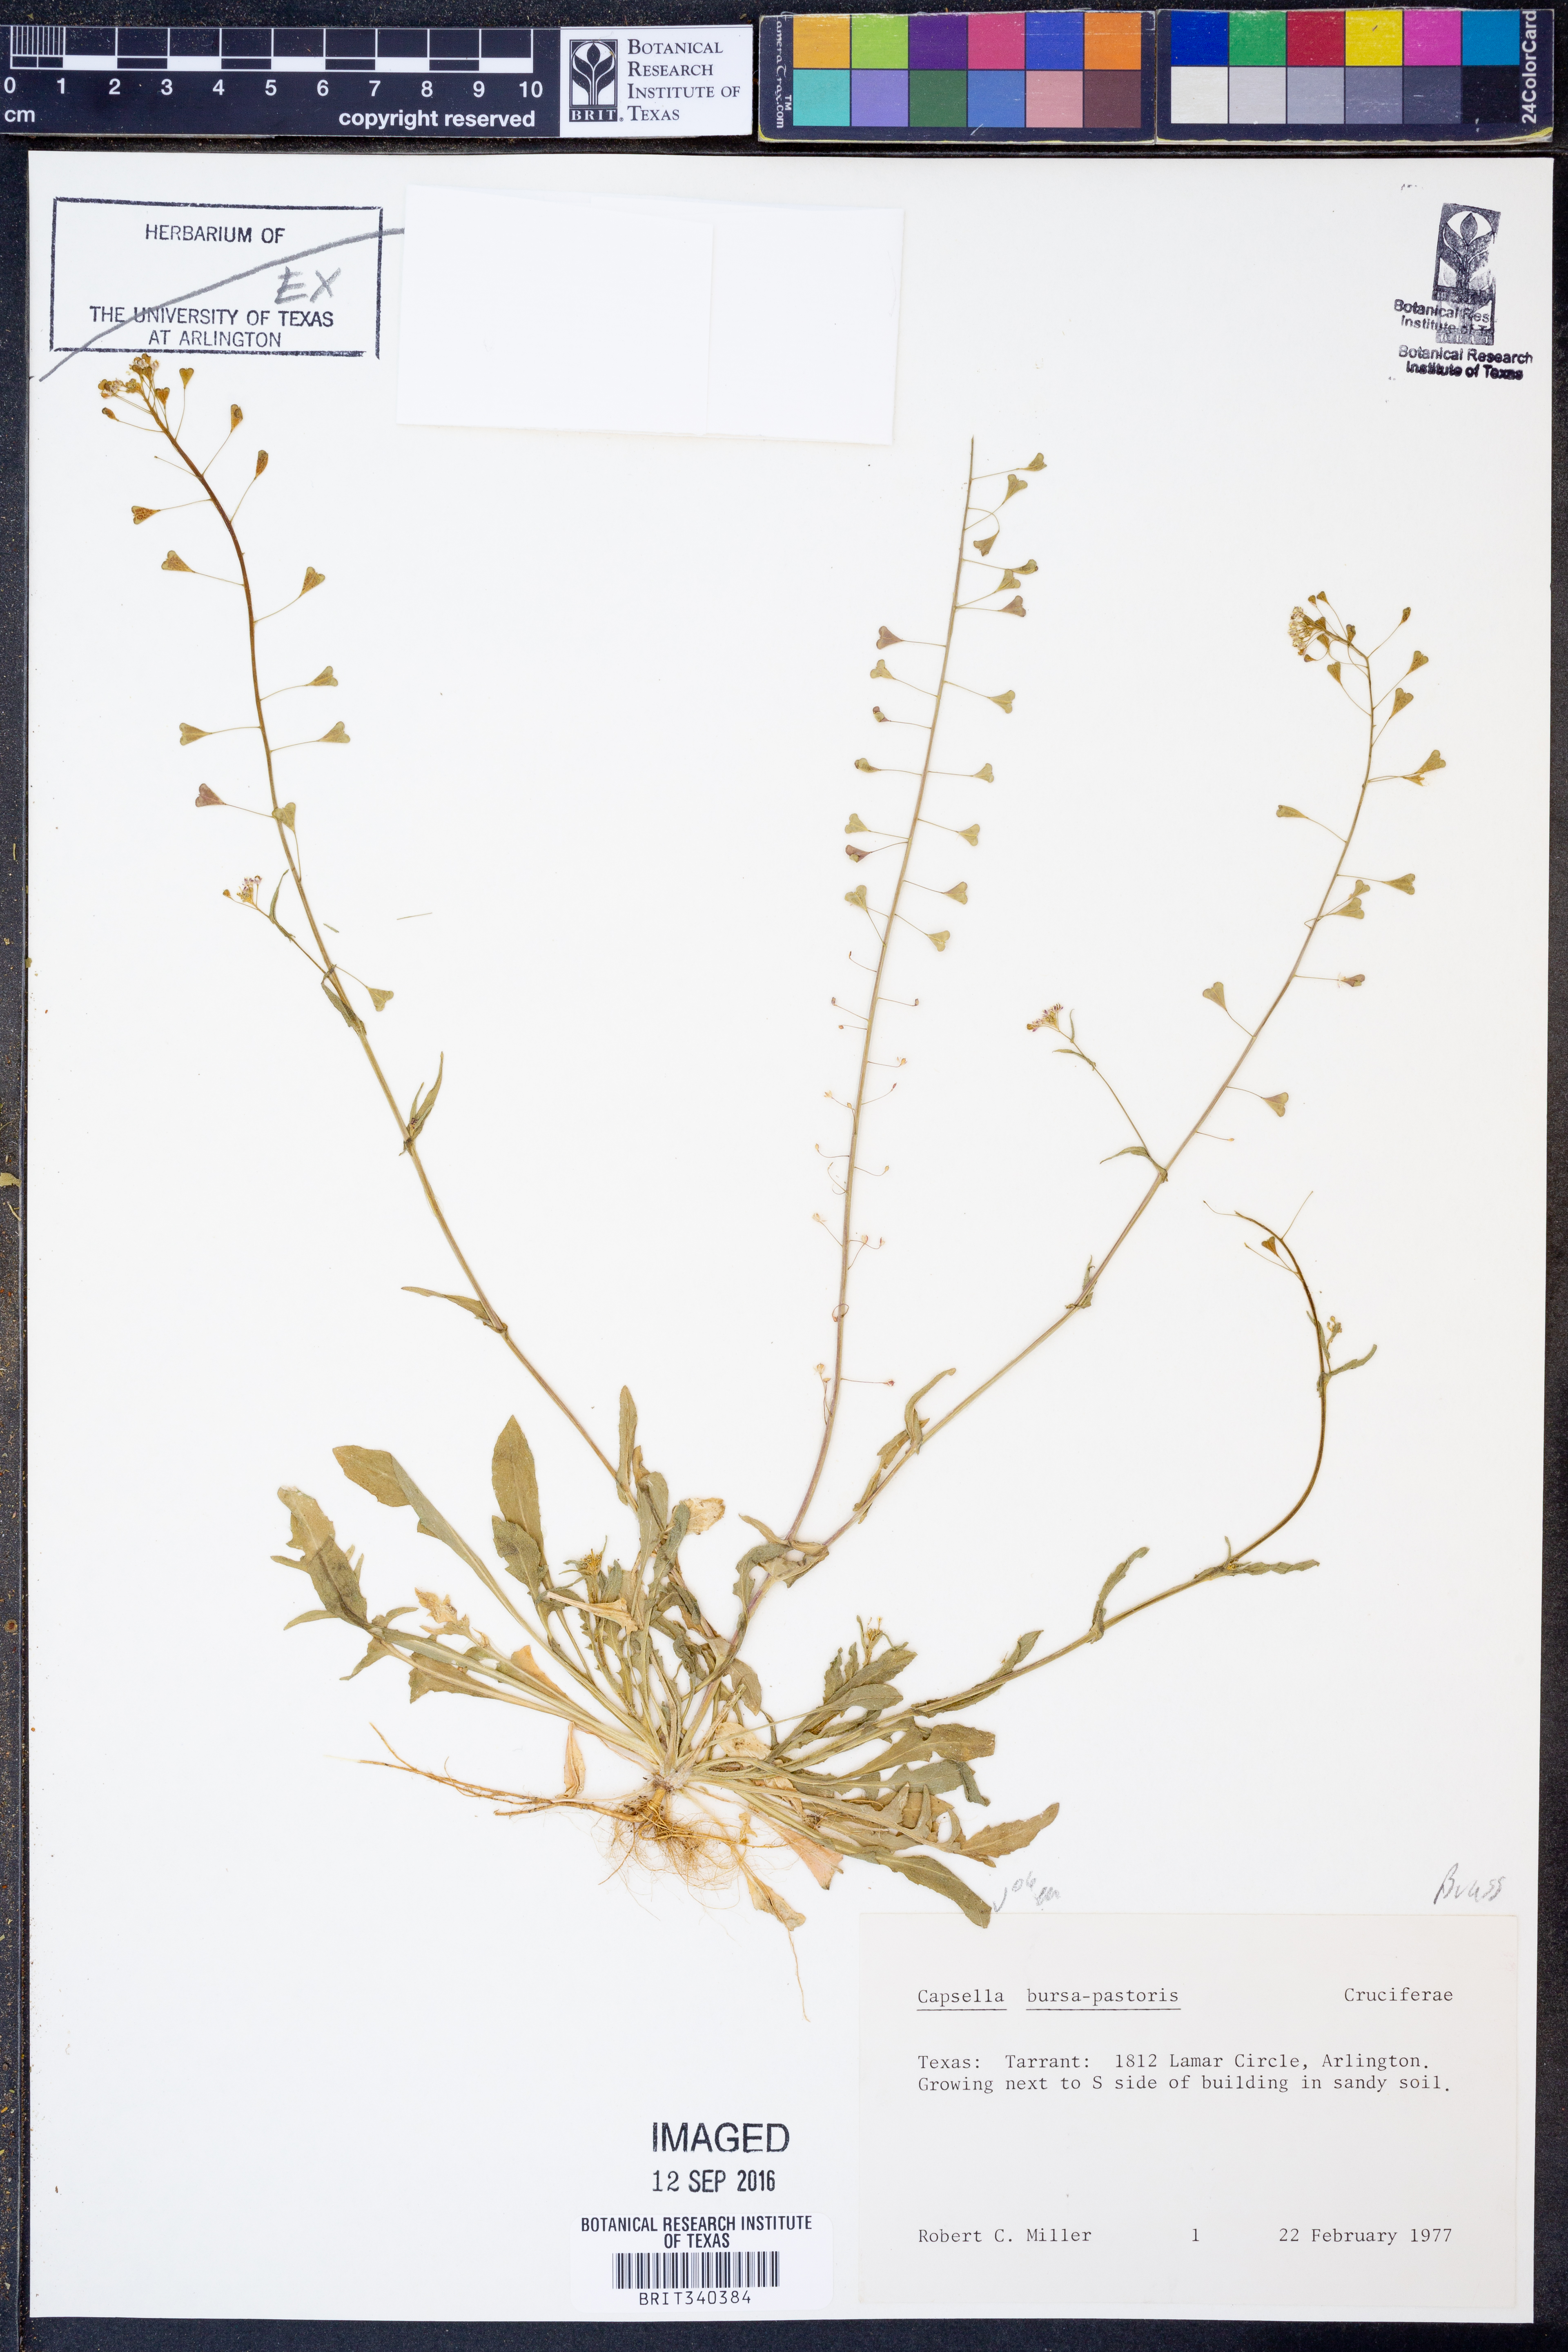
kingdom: Plantae
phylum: Tracheophyta
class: Magnoliopsida
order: Brassicales
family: Brassicaceae
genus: Capsella
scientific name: Capsella bursa-pastoris
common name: Shepherd's purse
